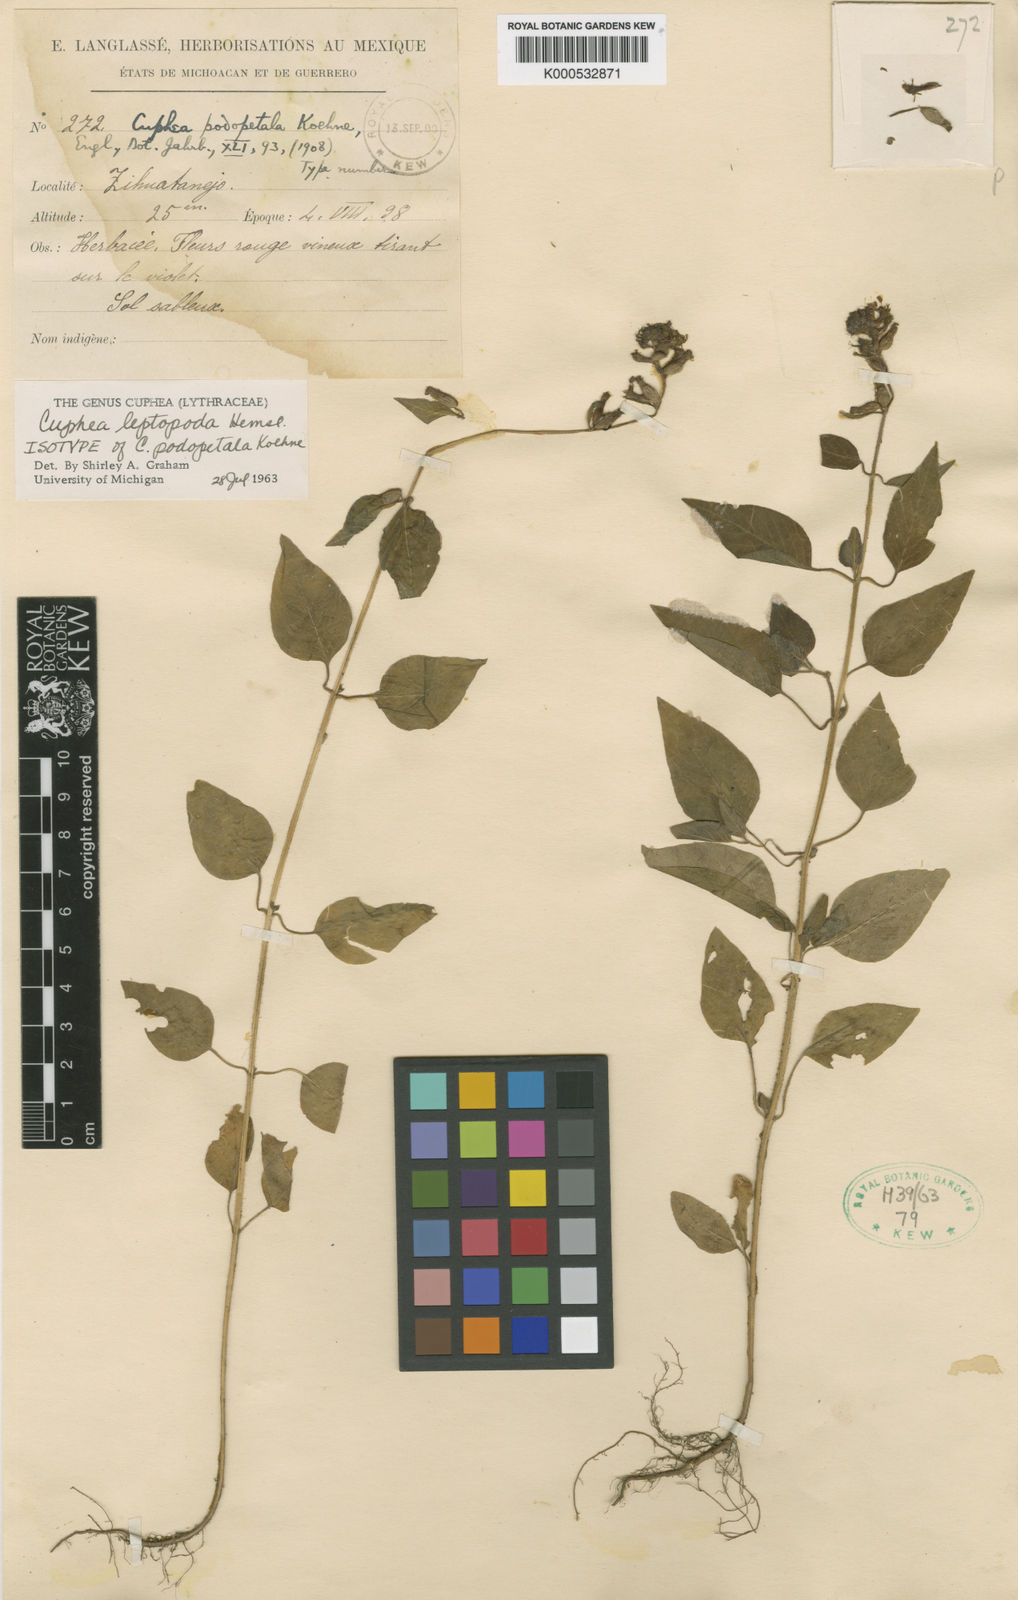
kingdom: Plantae
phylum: Tracheophyta
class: Magnoliopsida
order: Myrtales
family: Lythraceae
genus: Cuphea
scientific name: Cuphea leptopoda
